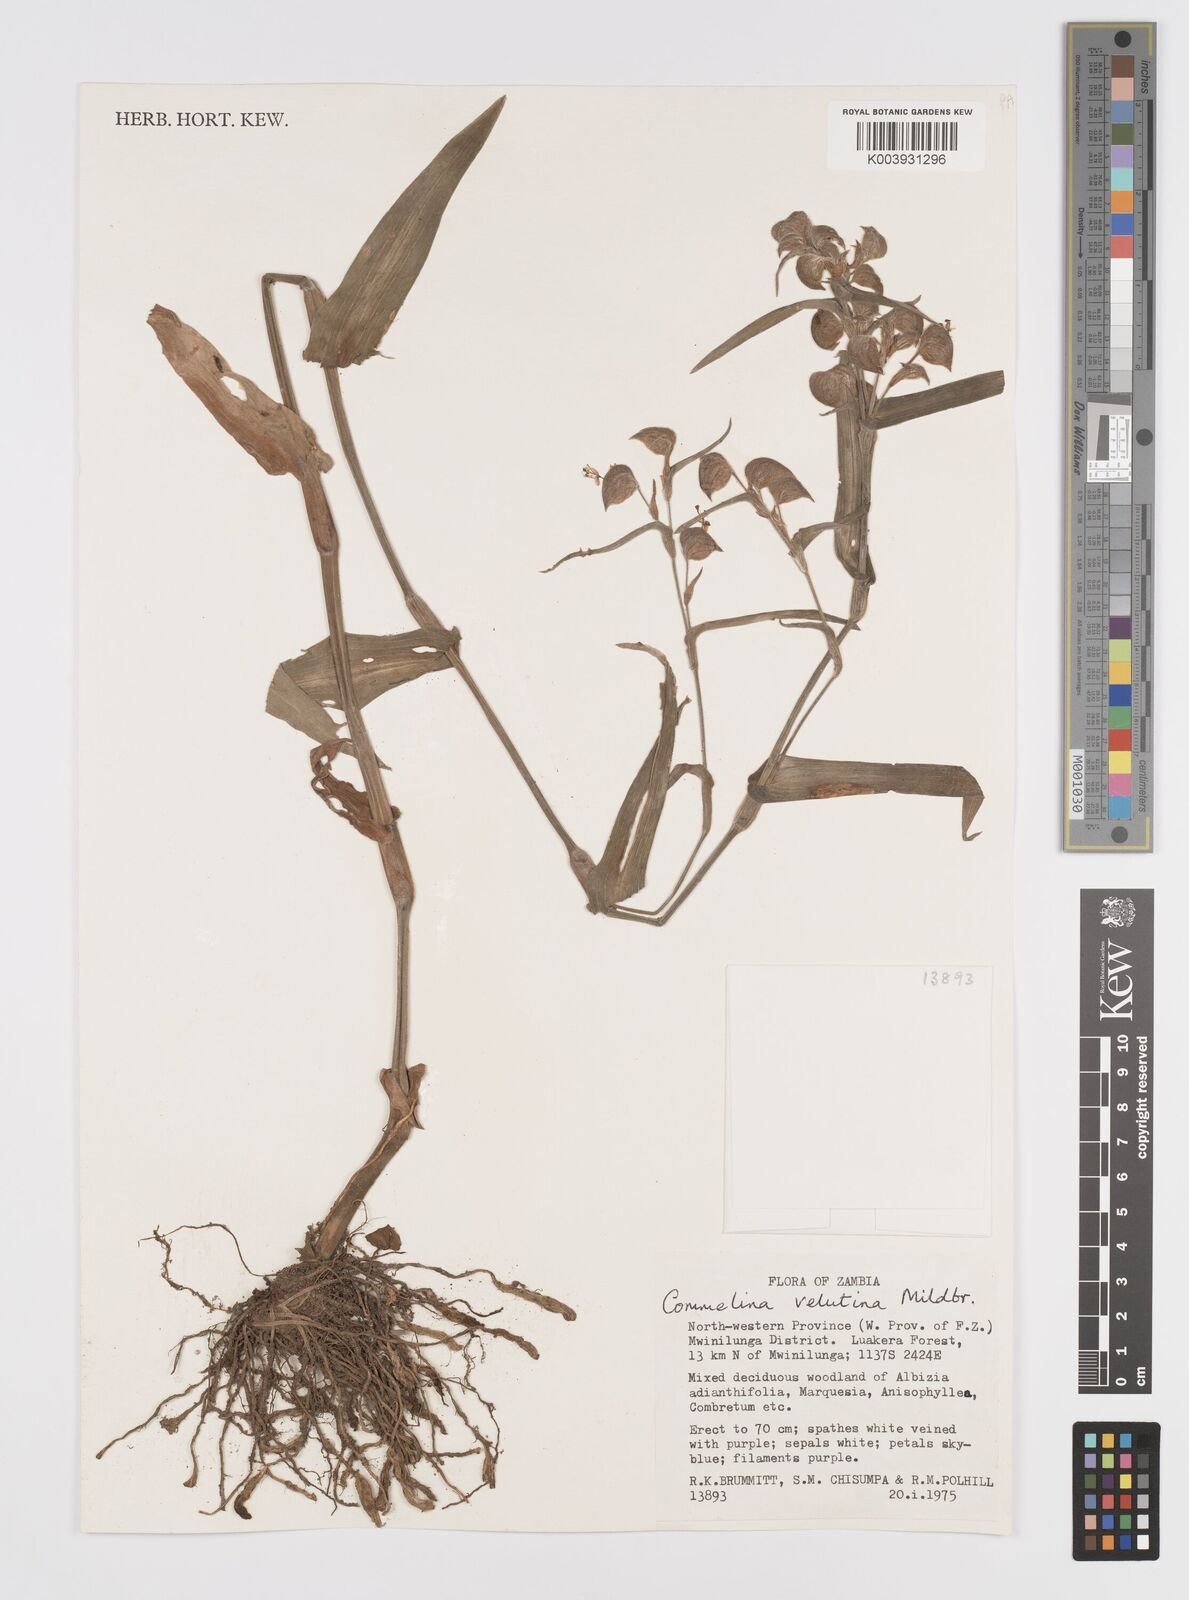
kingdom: Plantae
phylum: Tracheophyta
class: Liliopsida
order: Commelinales
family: Commelinaceae
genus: Commelina
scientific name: Commelina velutina
